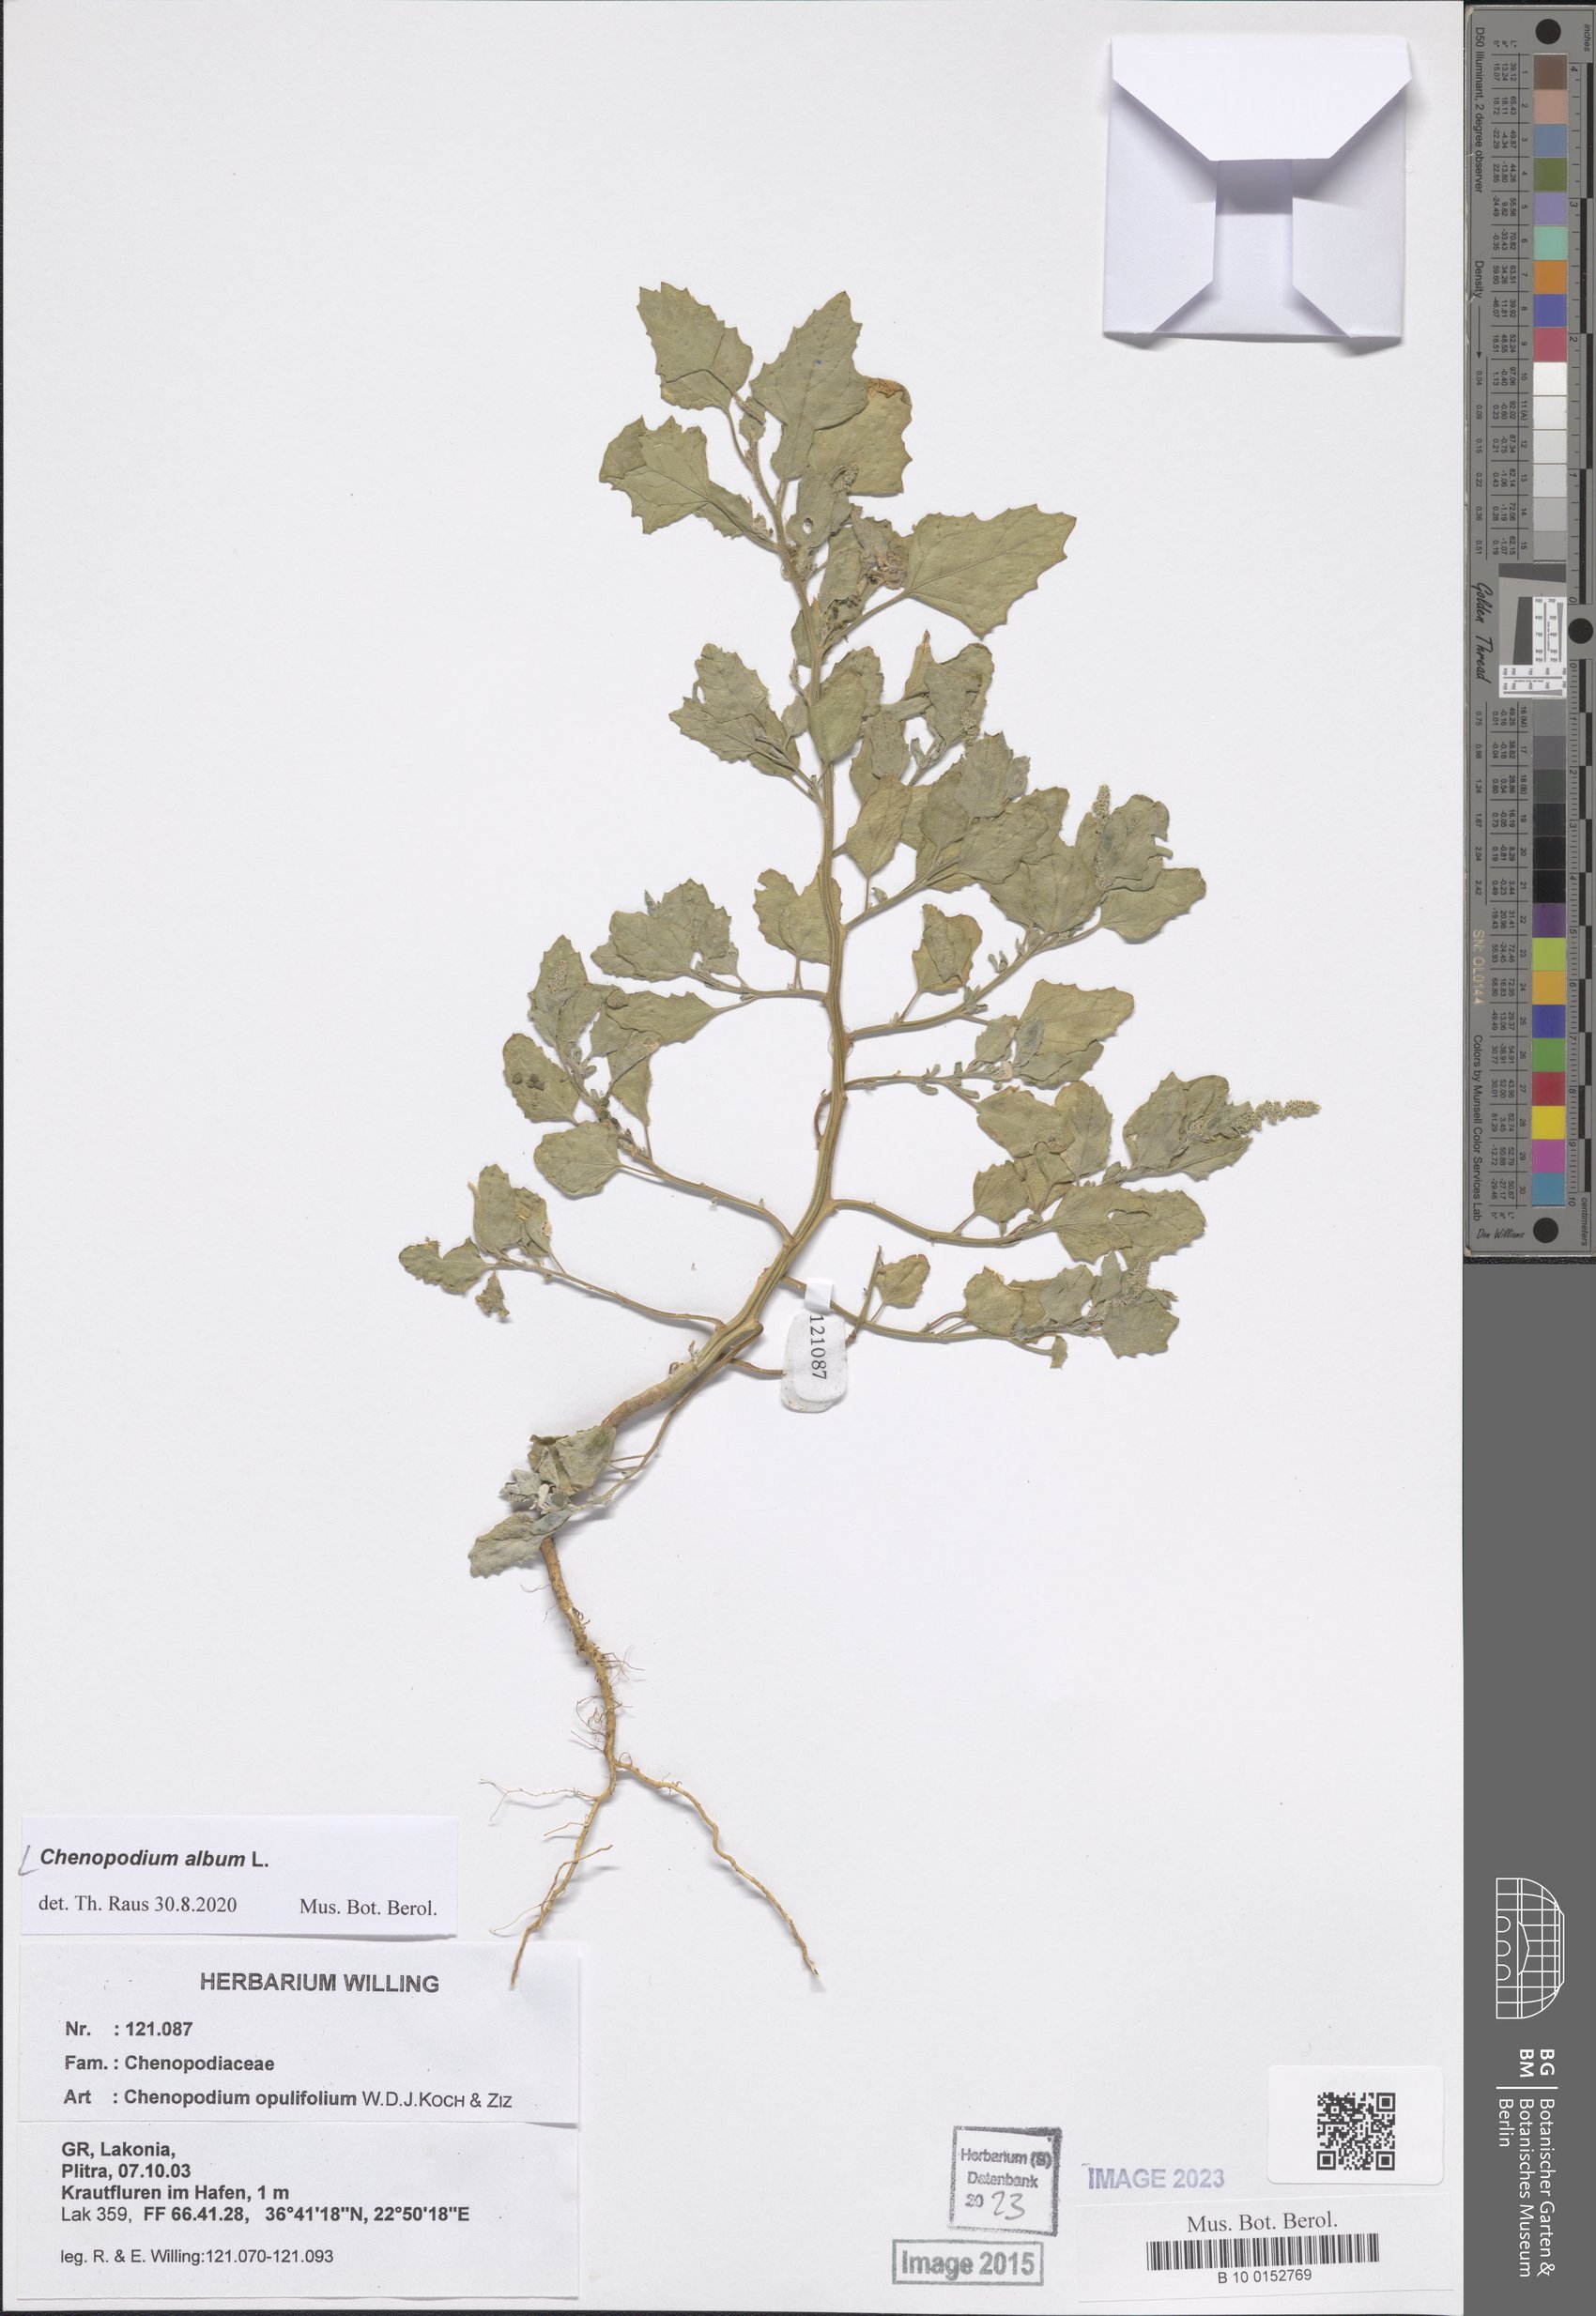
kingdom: Plantae
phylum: Tracheophyta
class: Magnoliopsida
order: Caryophyllales
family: Amaranthaceae
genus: Chenopodium
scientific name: Chenopodium album
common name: Fat-hen
